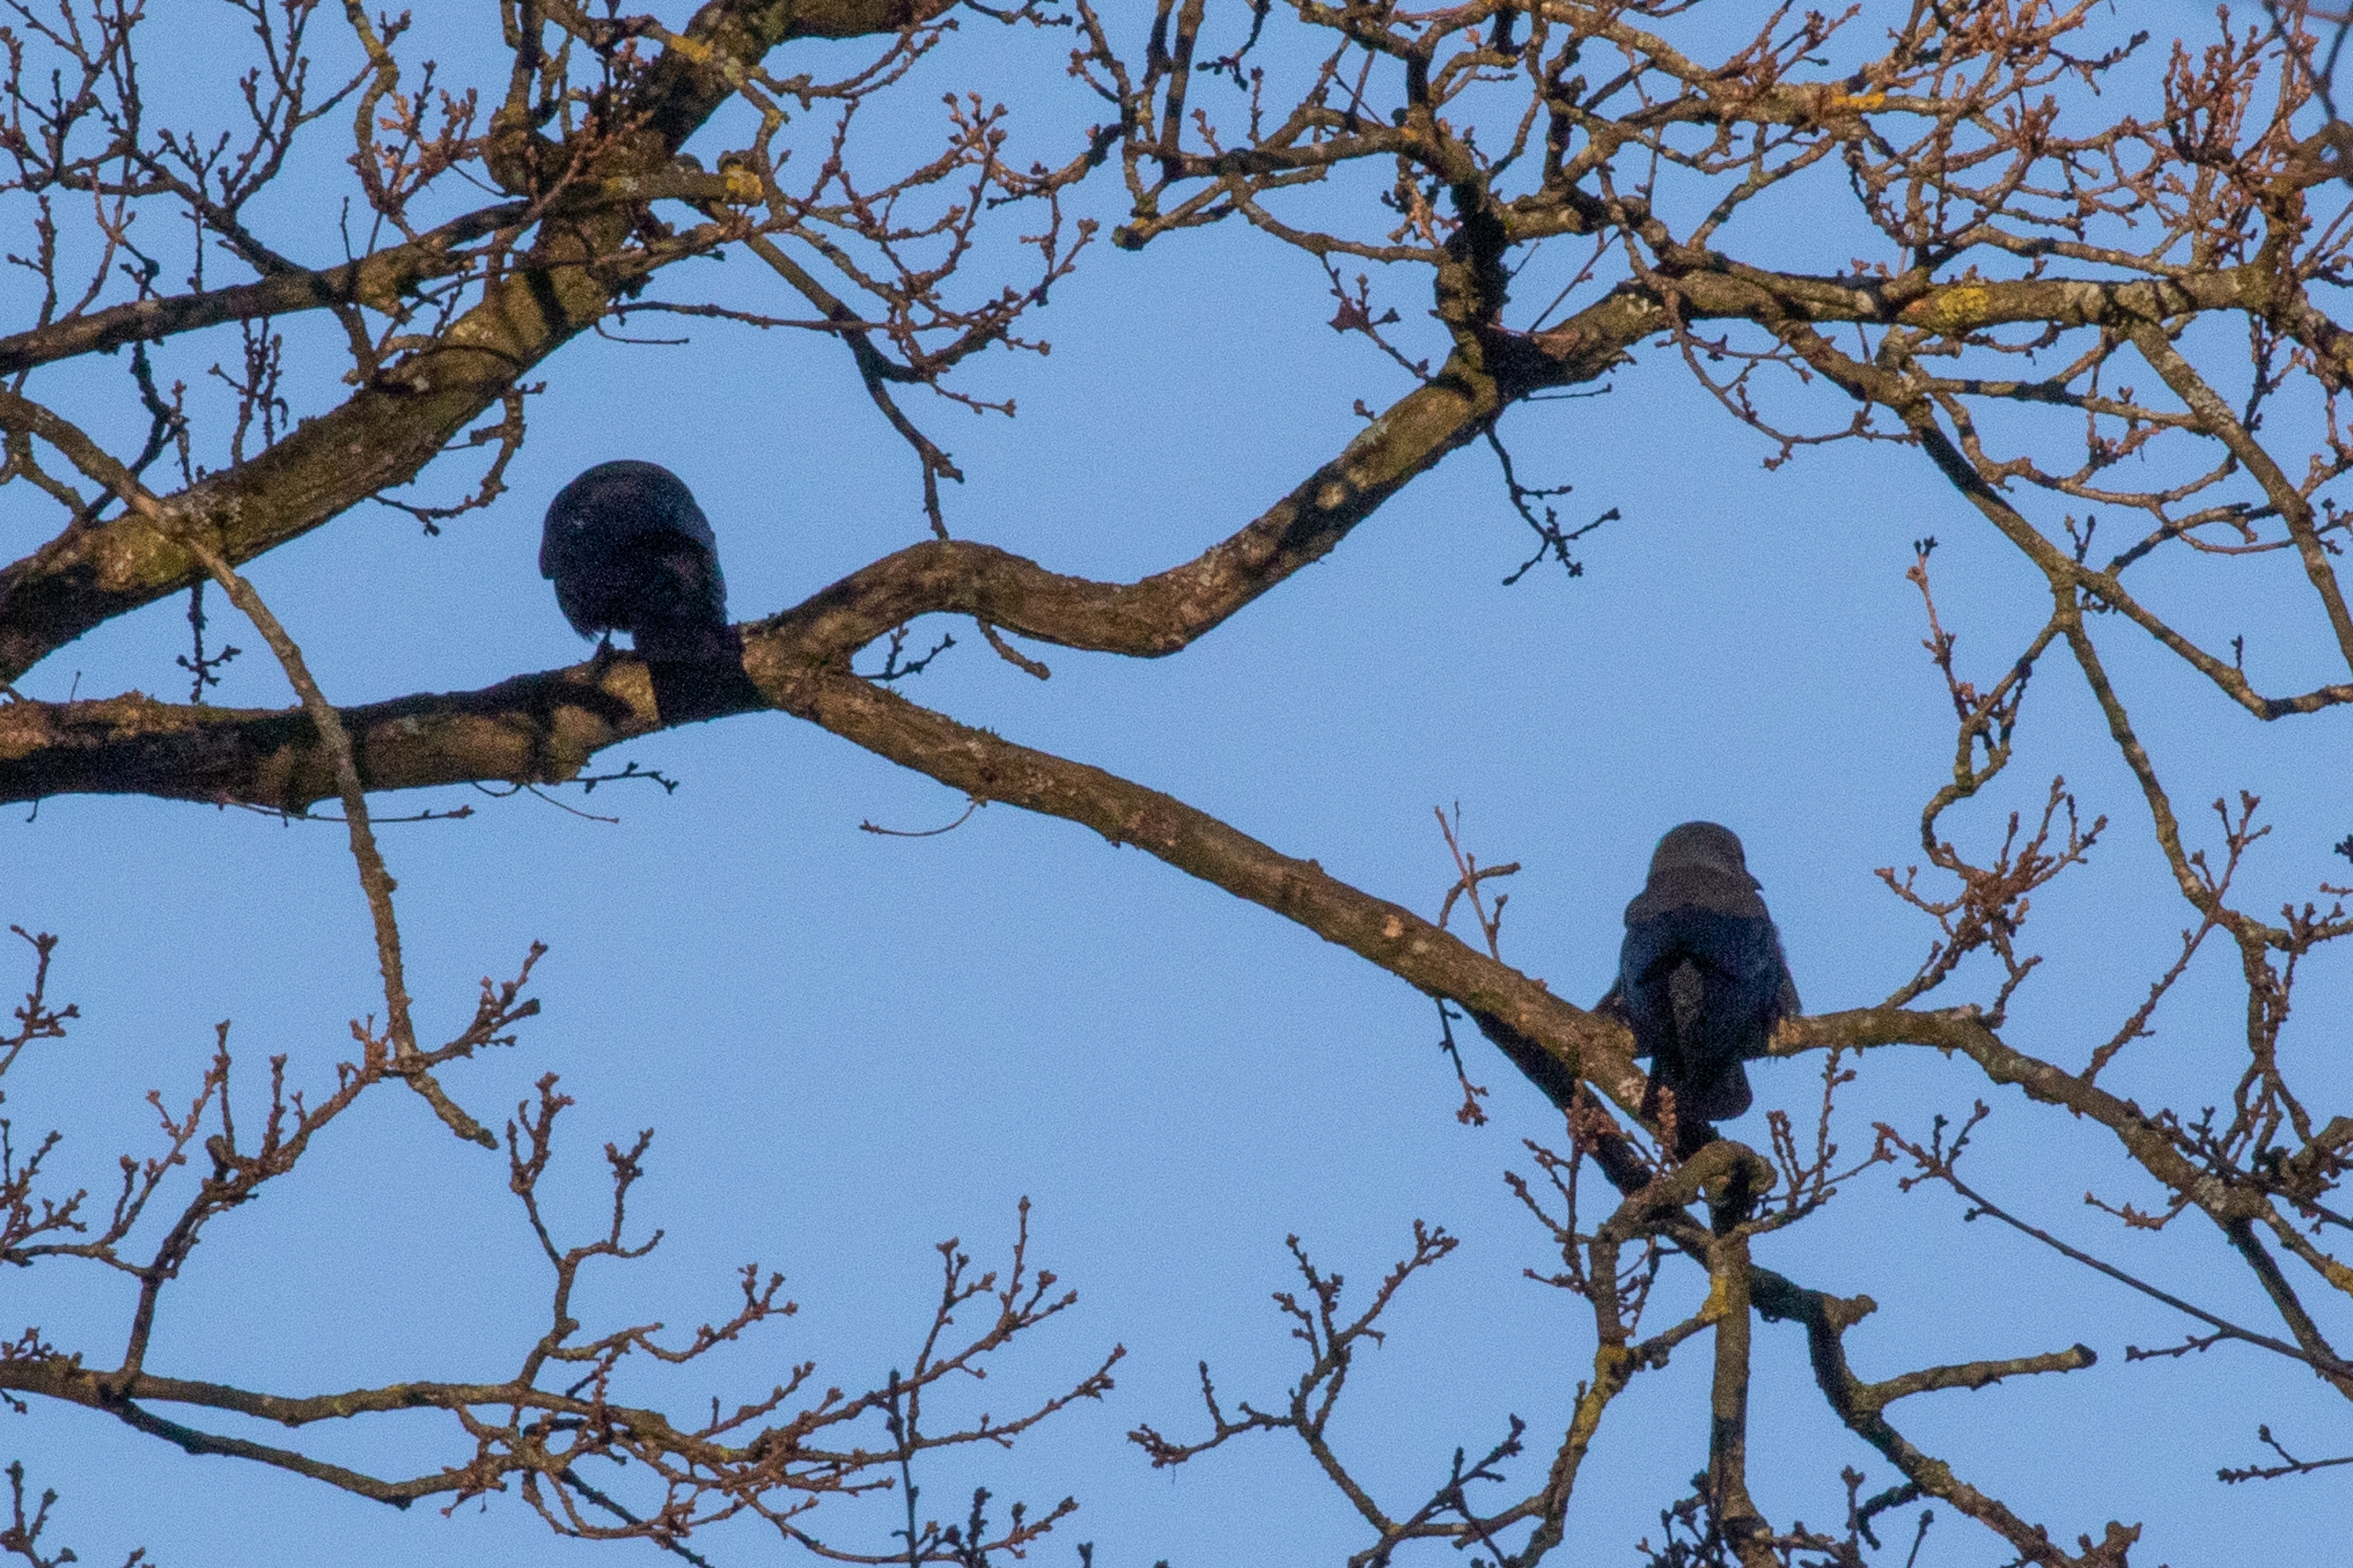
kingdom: Animalia
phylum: Chordata
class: Aves
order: Passeriformes
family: Corvidae
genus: Coloeus
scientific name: Coloeus monedula
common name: Allike
